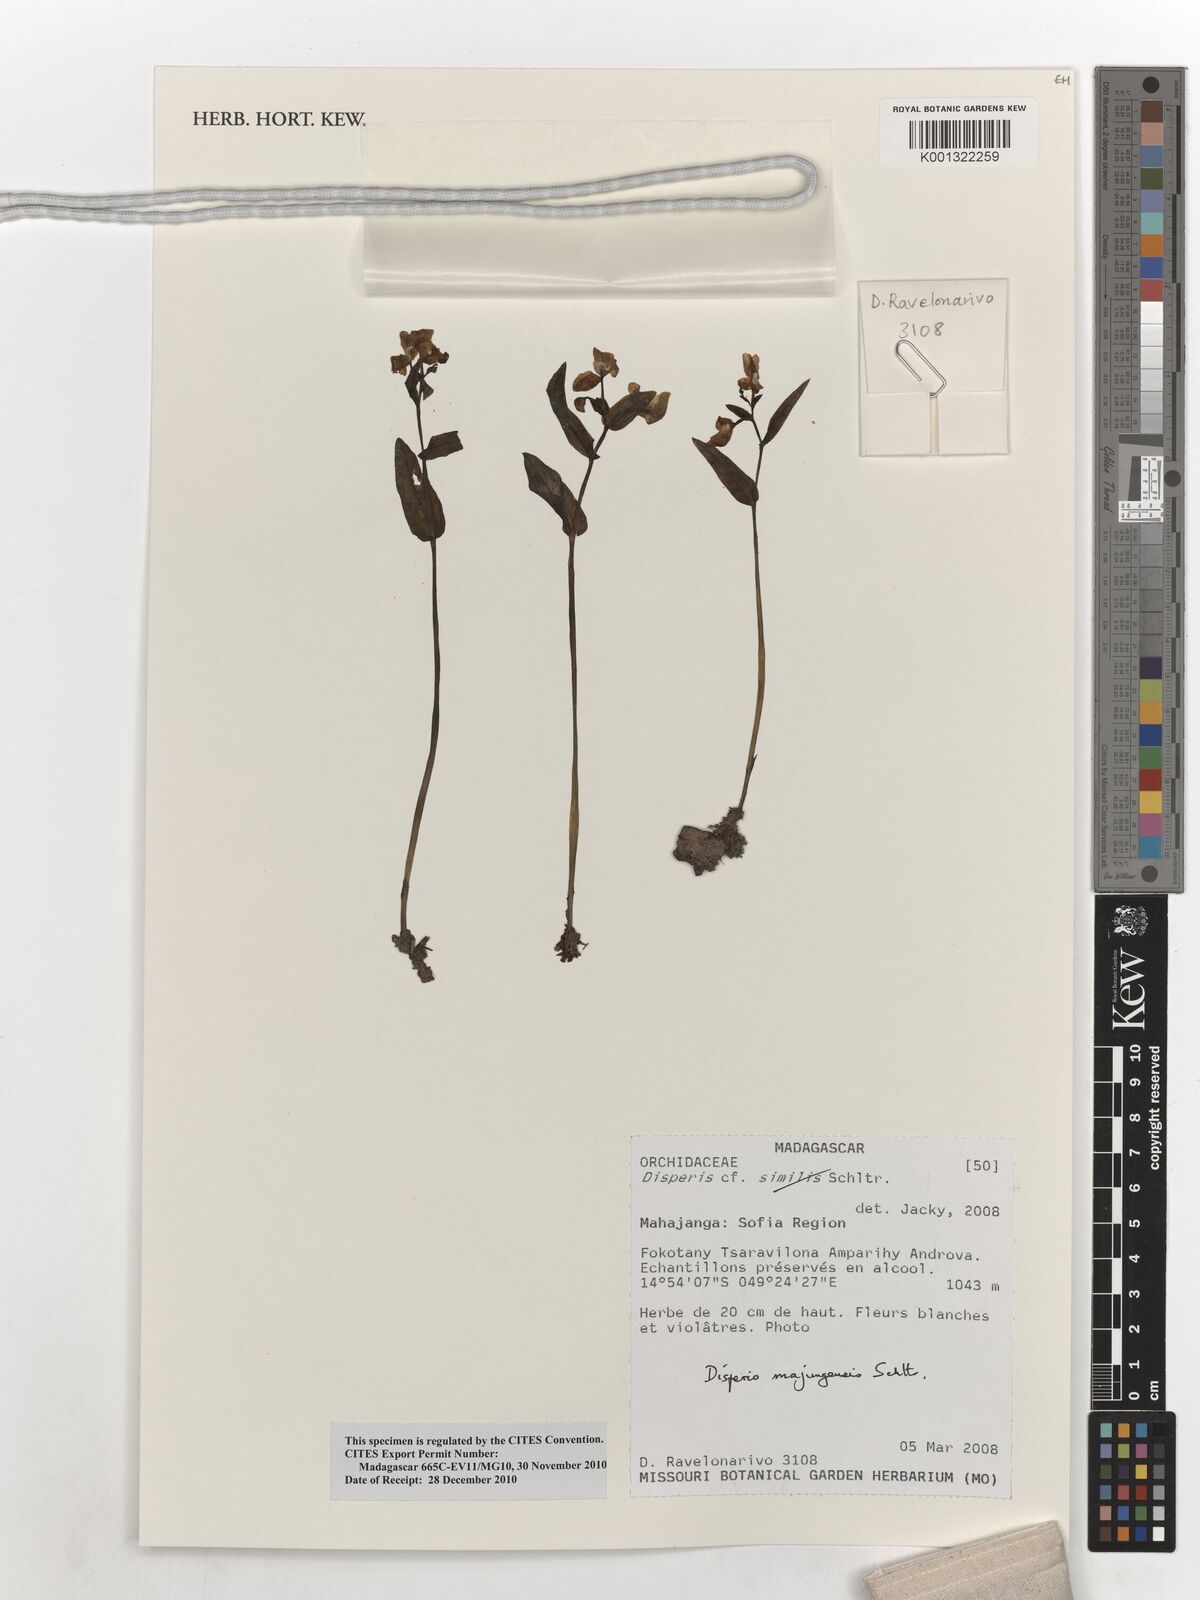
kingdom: Plantae
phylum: Tracheophyta
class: Liliopsida
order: Asparagales
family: Orchidaceae
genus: Disperis
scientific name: Disperis majungensis
